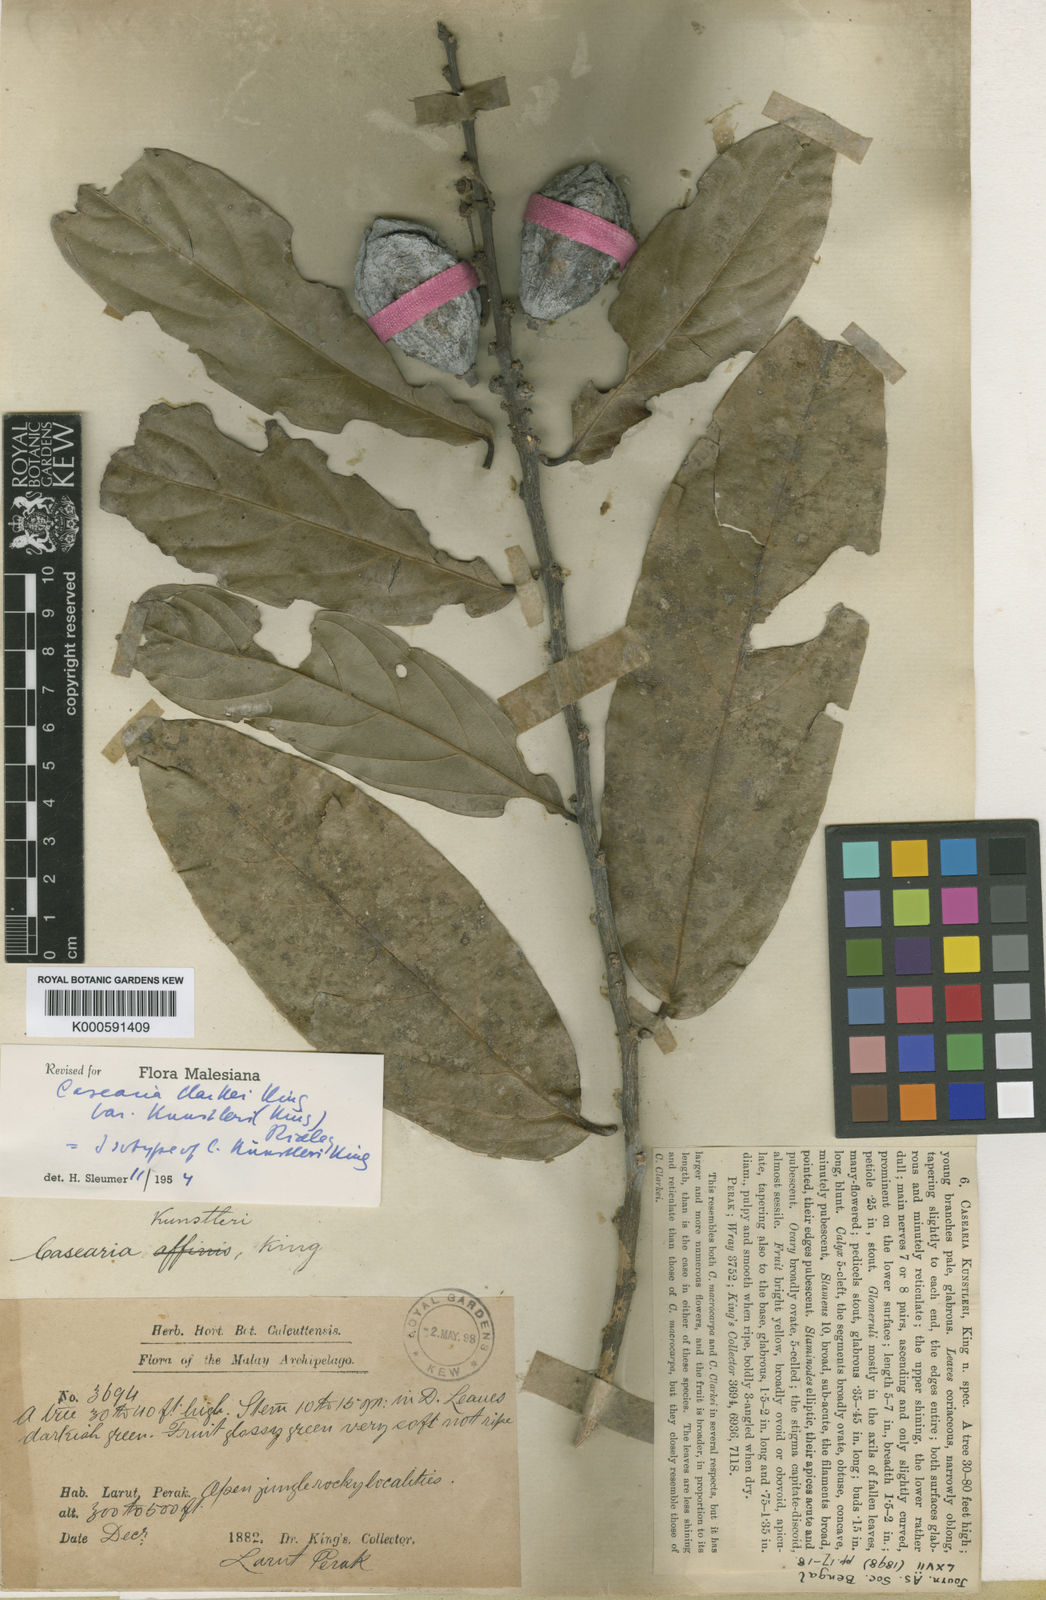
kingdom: Plantae
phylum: Tracheophyta
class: Magnoliopsida
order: Malpighiales
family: Salicaceae
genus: Casearia
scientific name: Casearia clarkei
